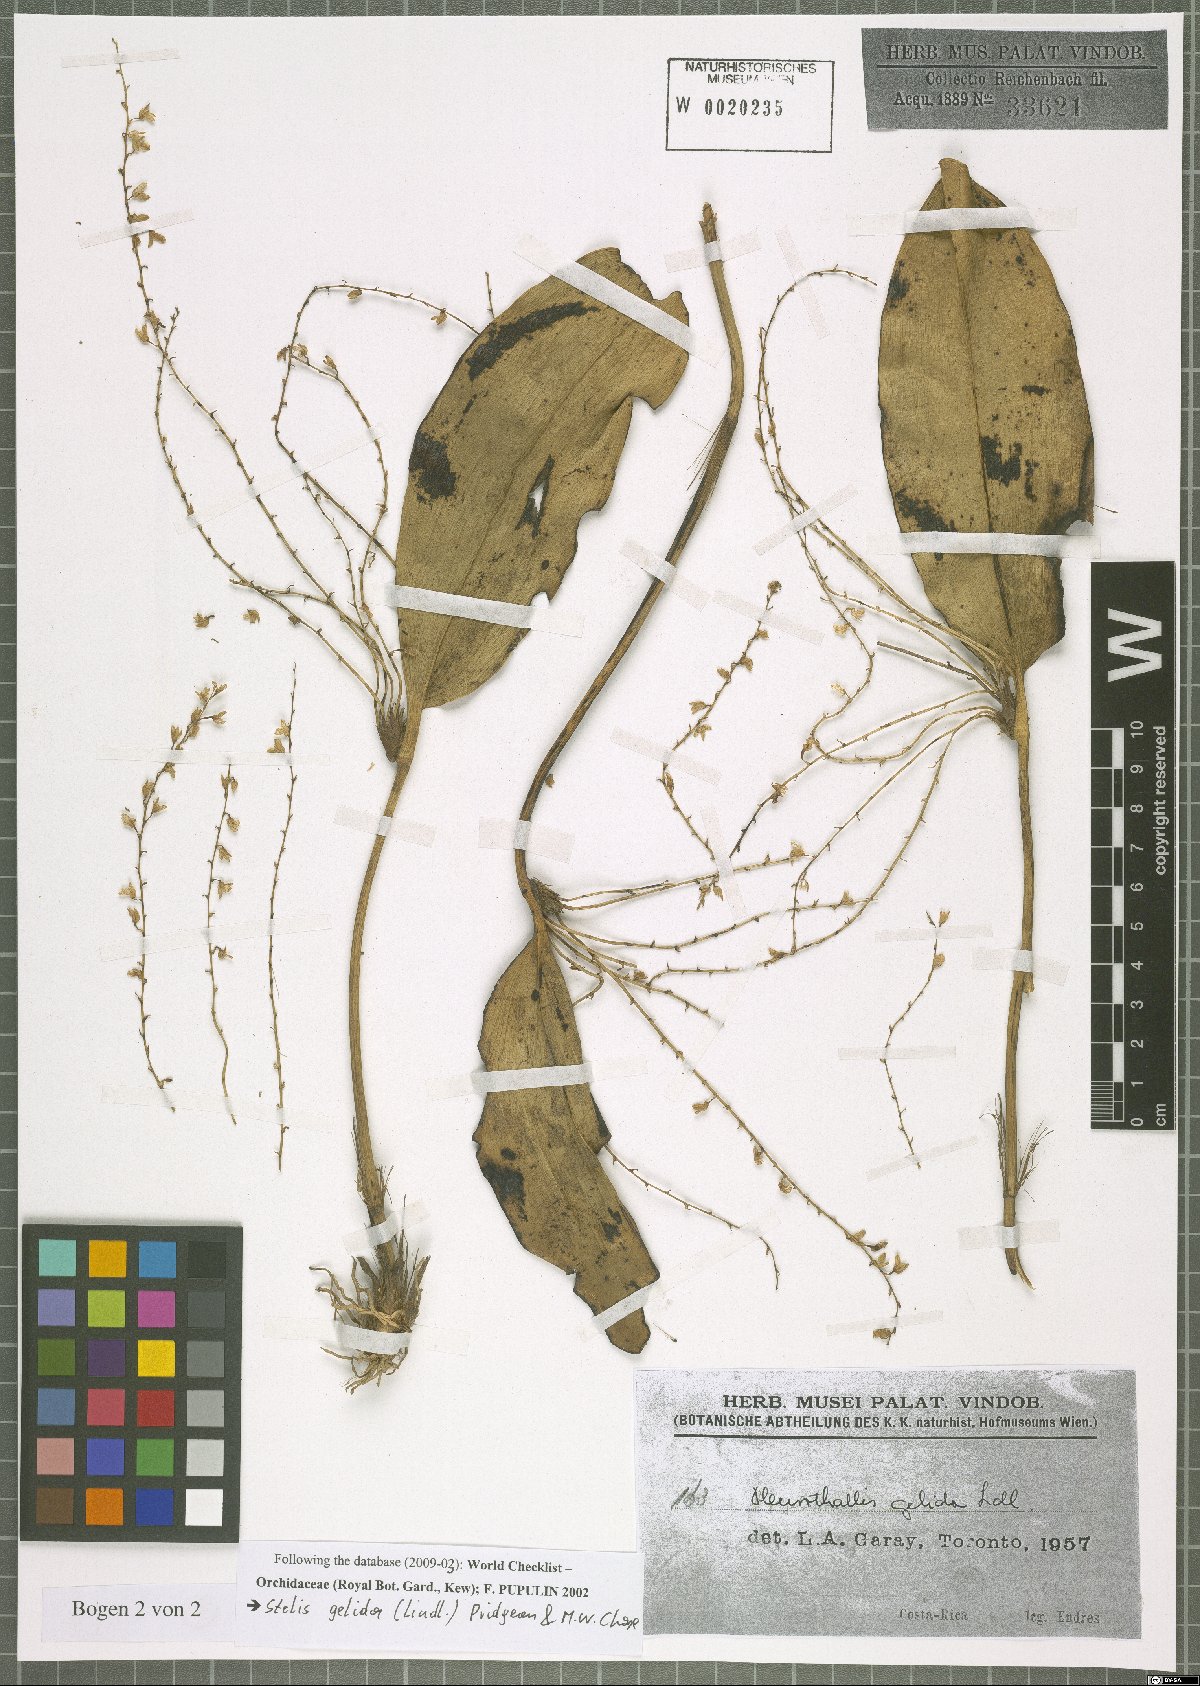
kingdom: Plantae
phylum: Tracheophyta
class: Liliopsida
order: Asparagales
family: Orchidaceae
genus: Stelis
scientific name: Stelis gelida
